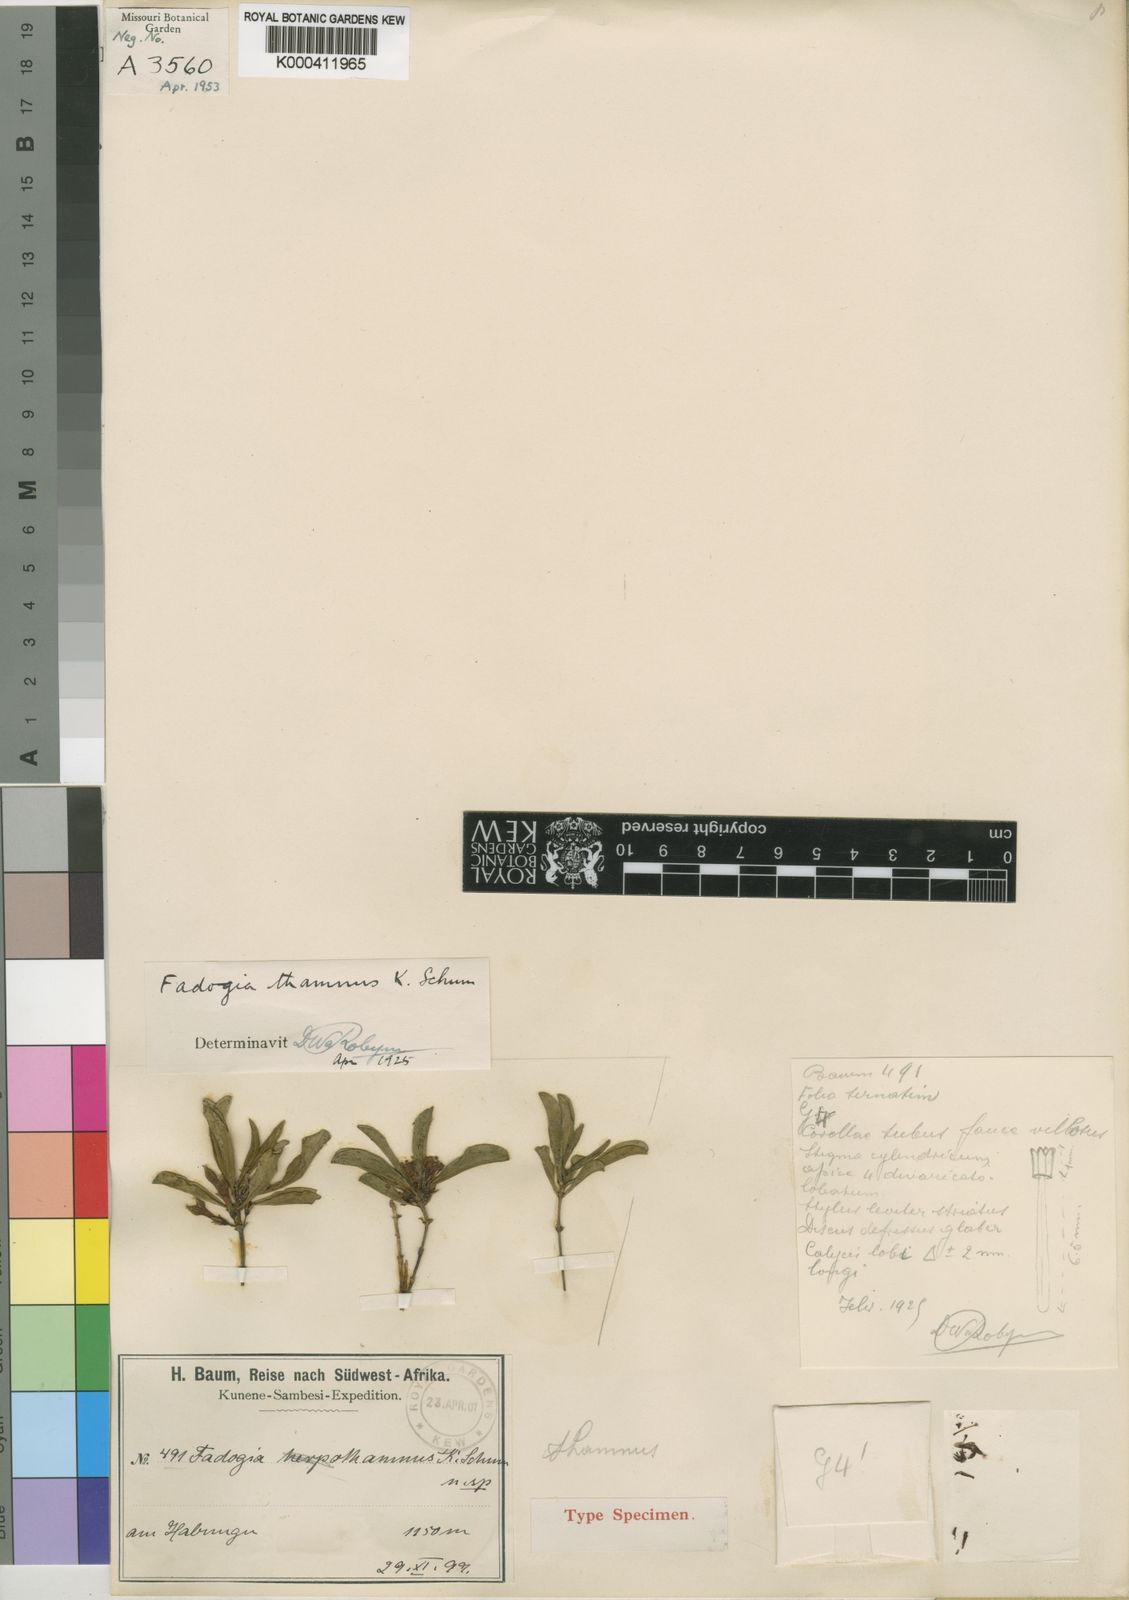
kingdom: Plantae
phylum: Tracheophyta
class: Magnoliopsida
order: Gentianales
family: Rubiaceae
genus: Fadogia
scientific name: Fadogia chlorantha
